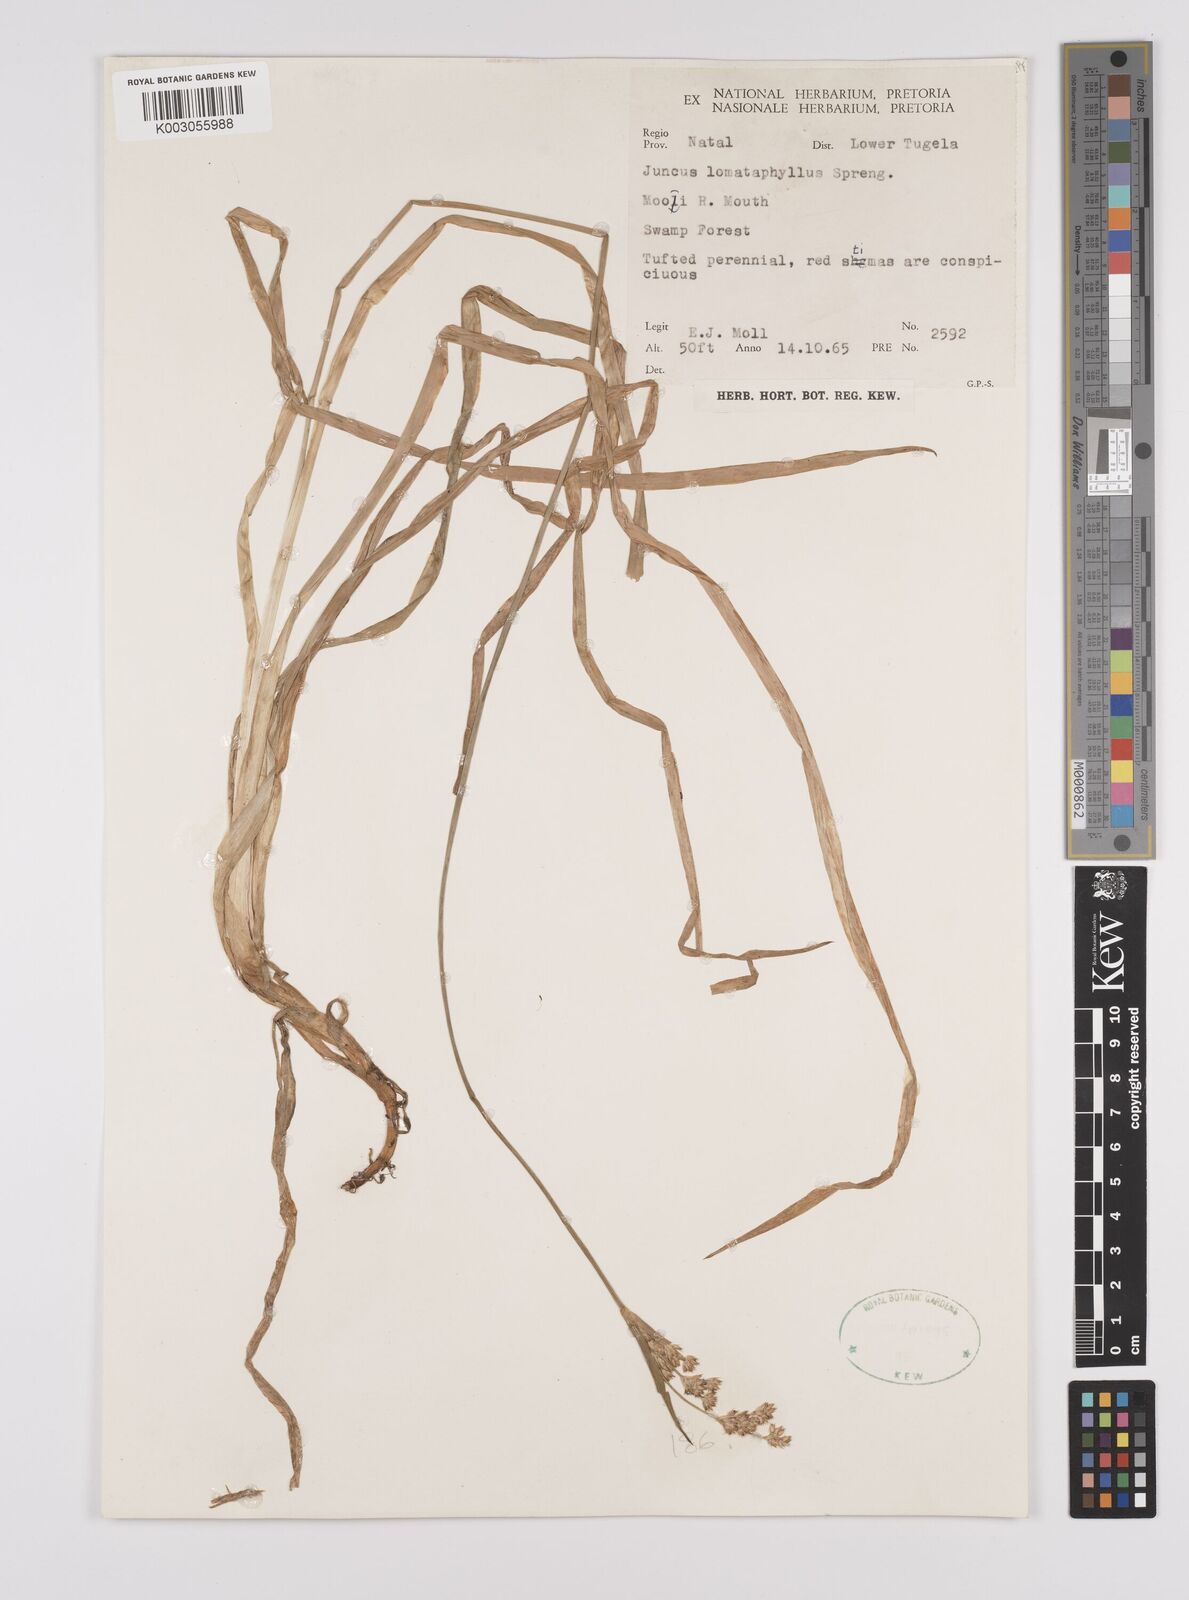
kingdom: Plantae
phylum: Tracheophyta
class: Liliopsida
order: Poales
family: Juncaceae
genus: Juncus
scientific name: Juncus lomatophyllus
